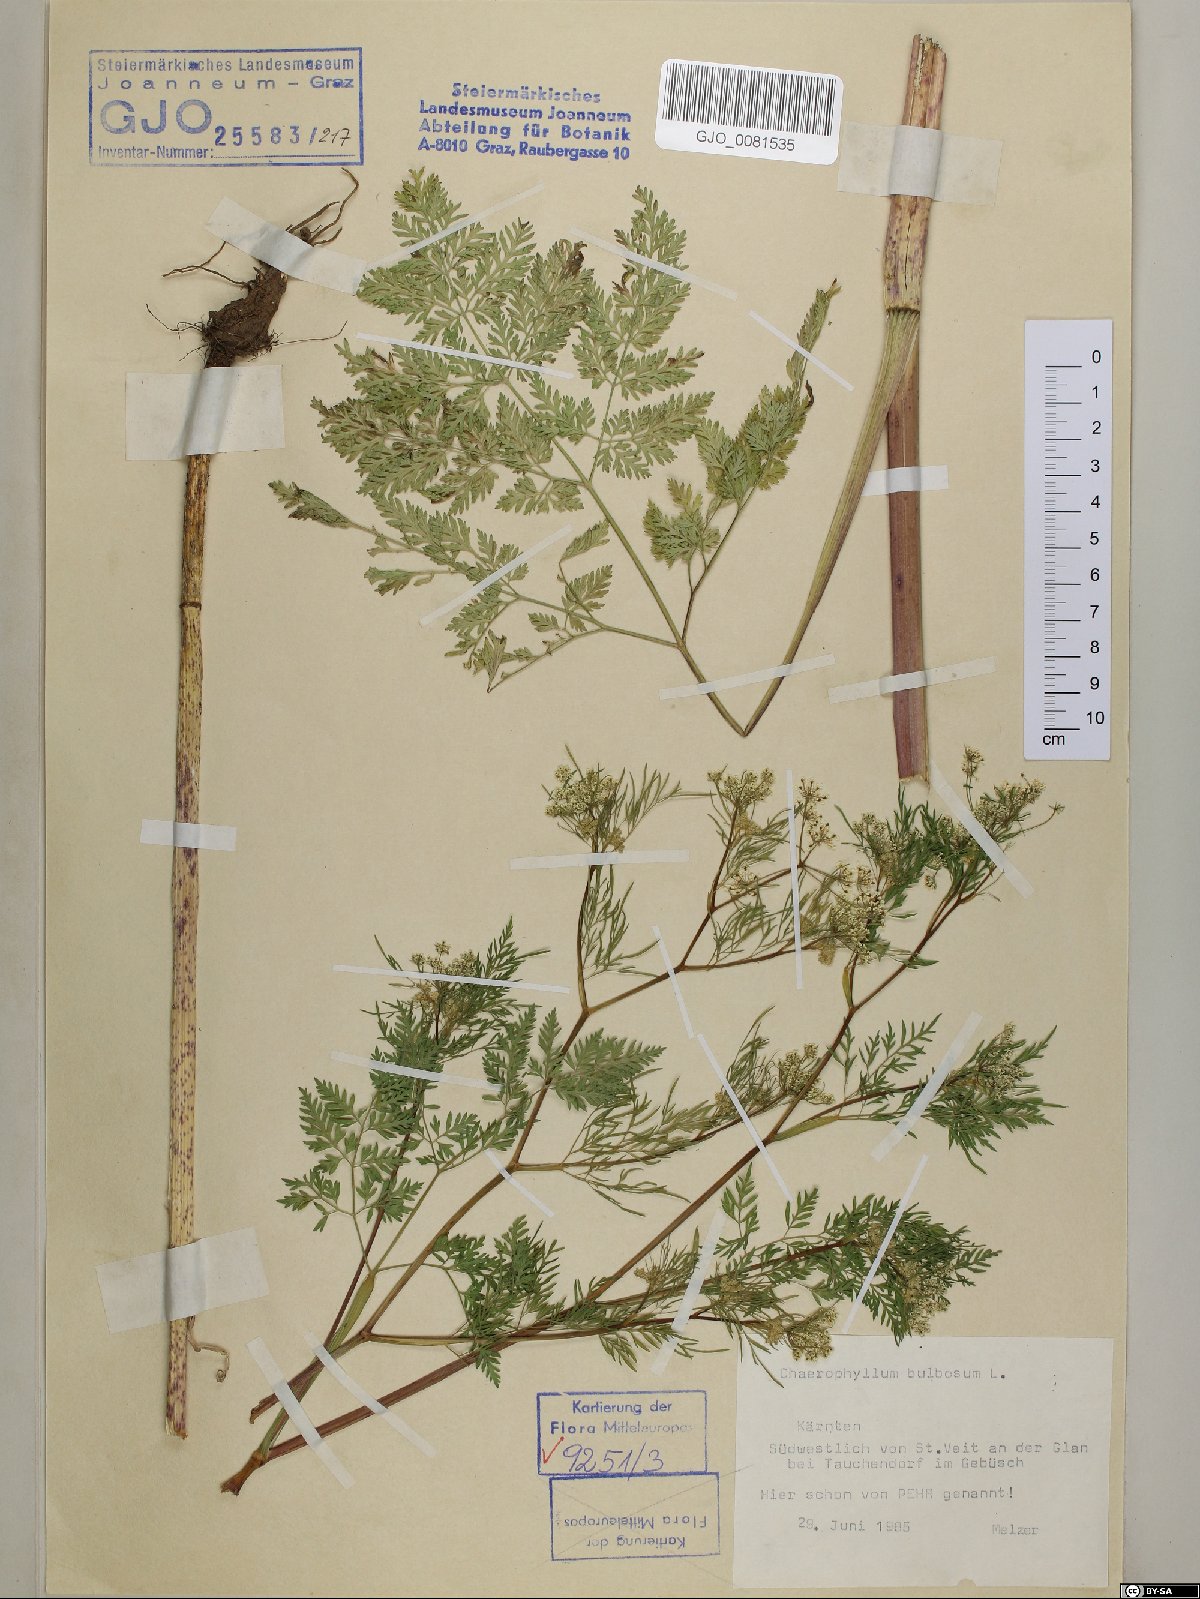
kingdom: Plantae
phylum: Tracheophyta
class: Magnoliopsida
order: Apiales
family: Apiaceae
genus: Chaerophyllum
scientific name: Chaerophyllum bulbosum
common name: Bulbous chervil
